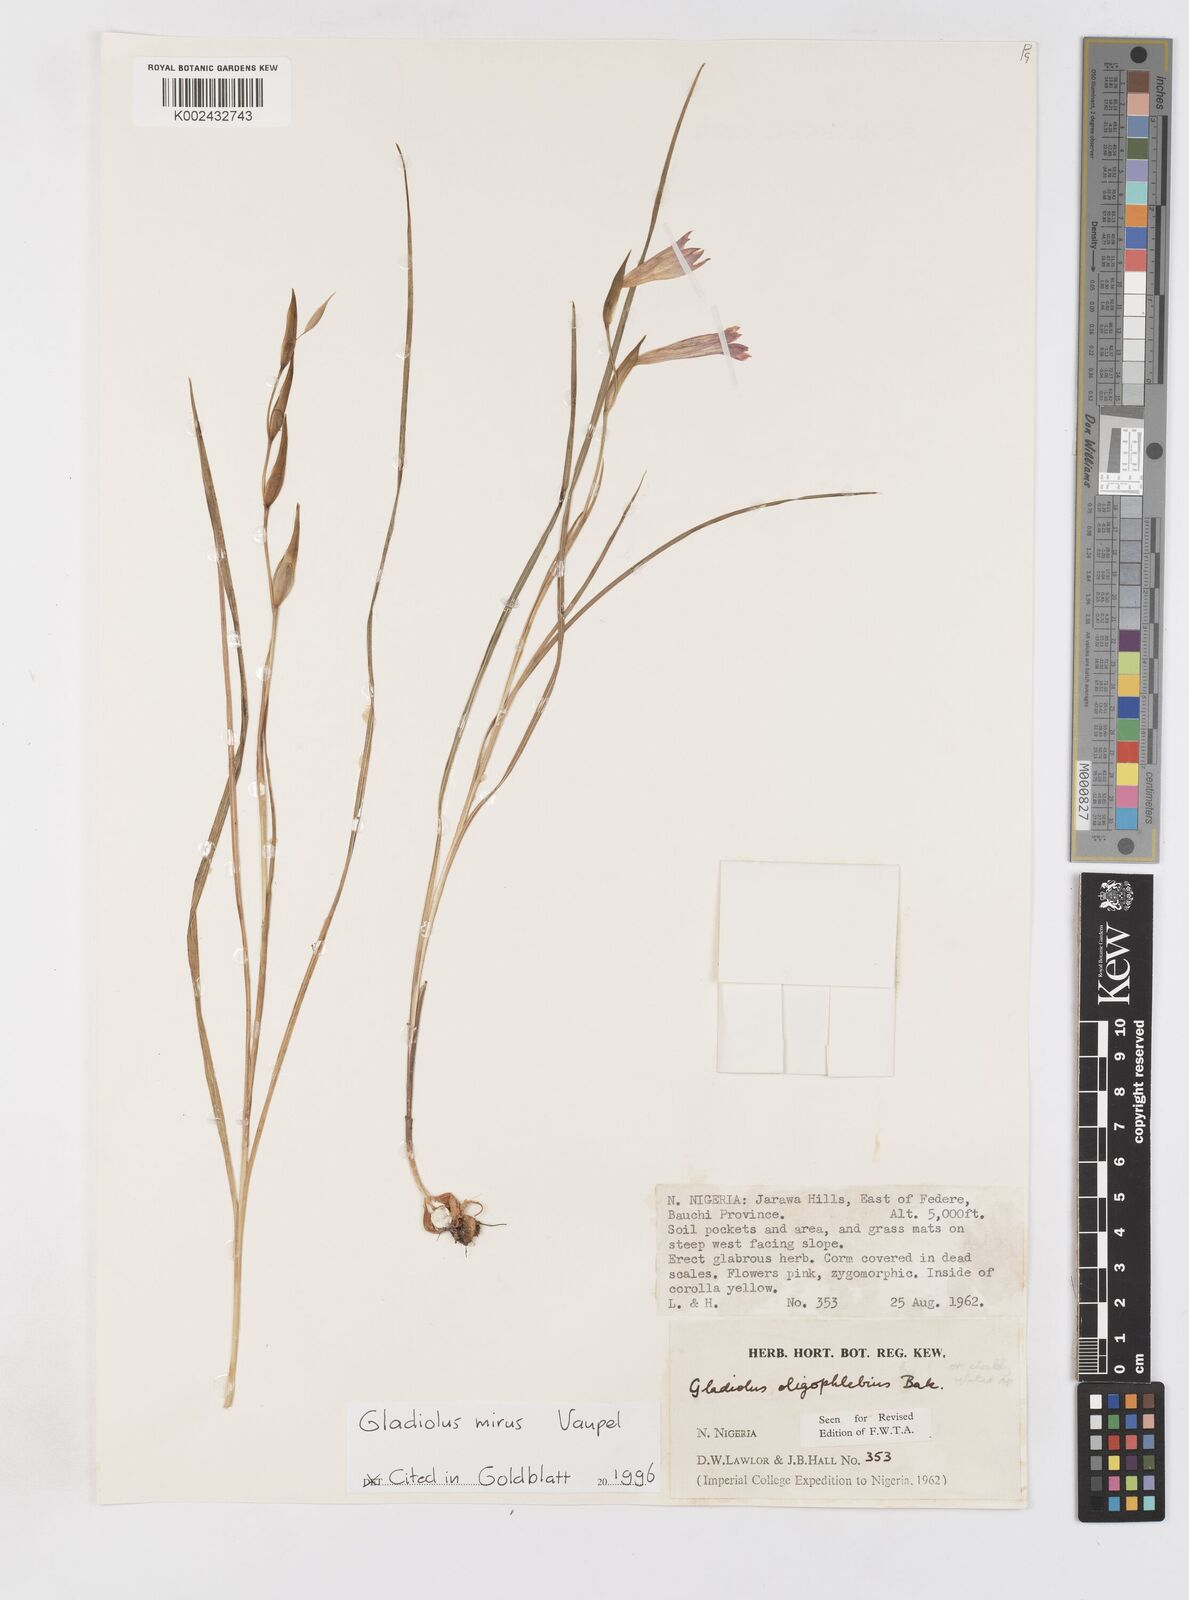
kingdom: Plantae
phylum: Tracheophyta
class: Liliopsida
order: Asparagales
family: Iridaceae
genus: Gladiolus
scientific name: Gladiolus mirus
